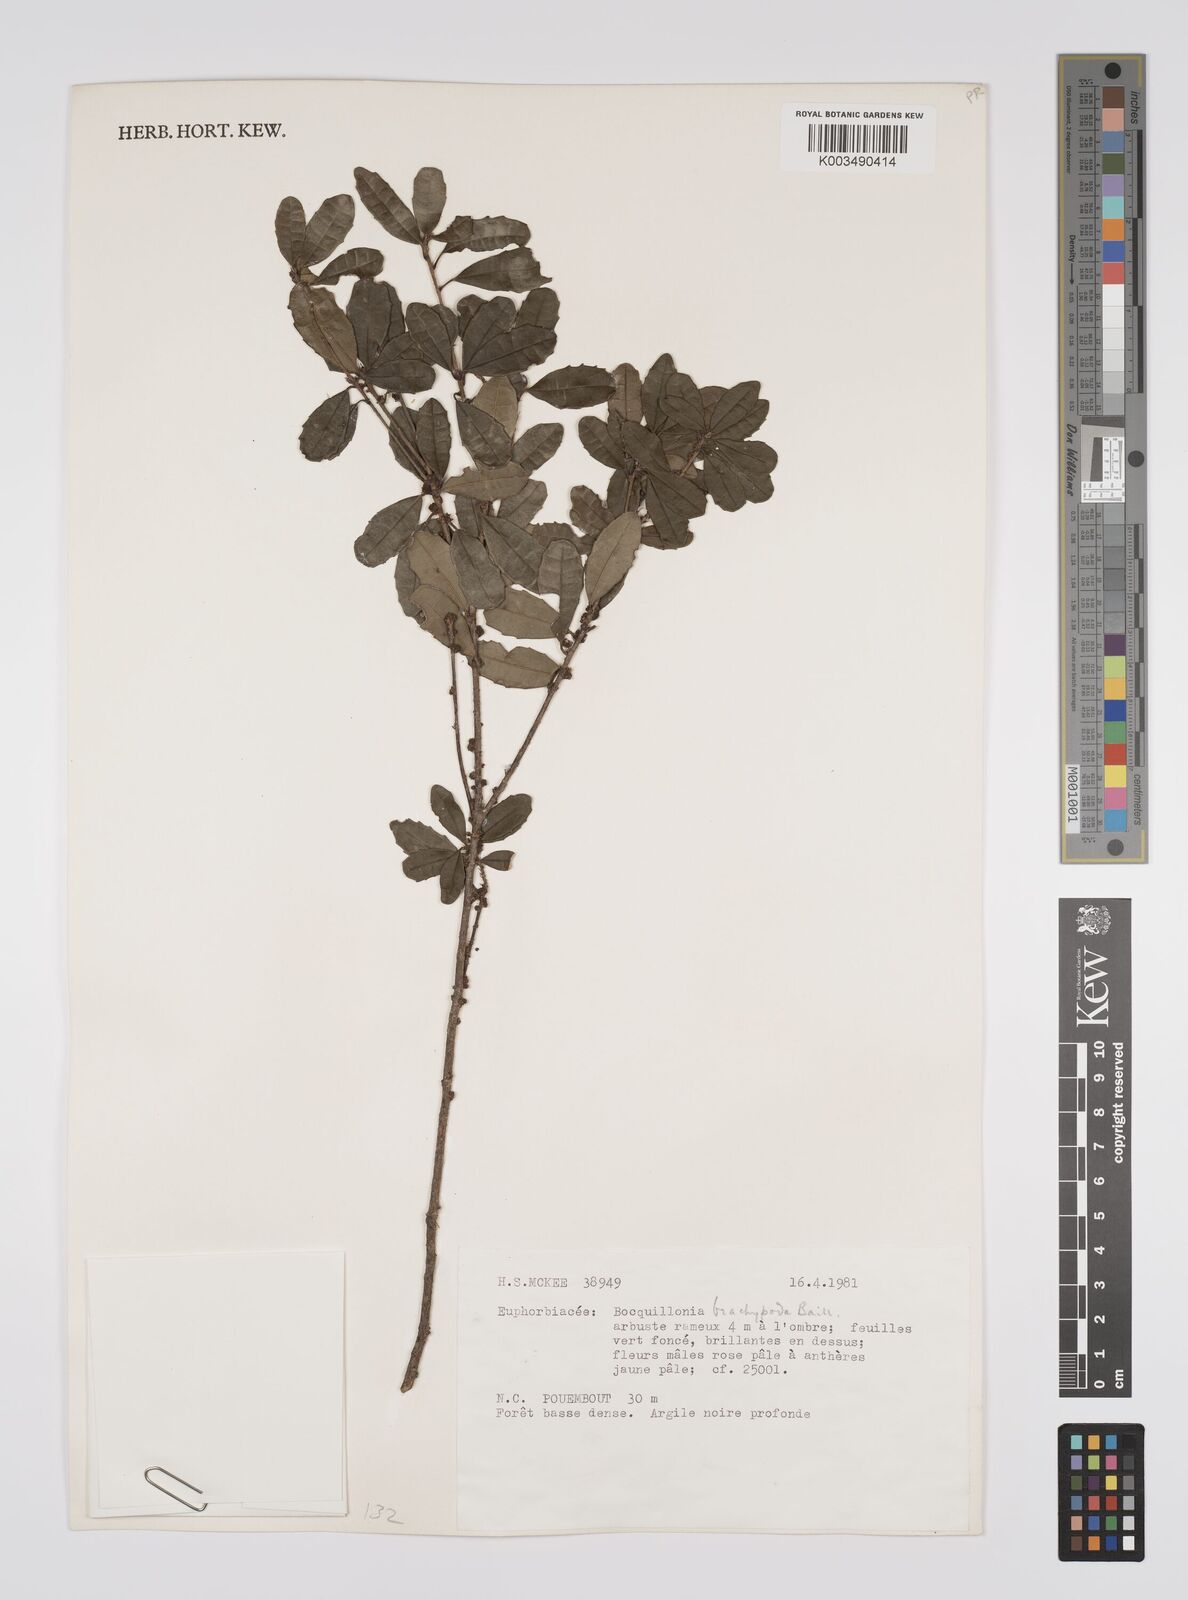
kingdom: Plantae
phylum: Tracheophyta
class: Magnoliopsida
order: Malpighiales
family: Euphorbiaceae
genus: Bocquillonia
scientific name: Bocquillonia brachypoda
